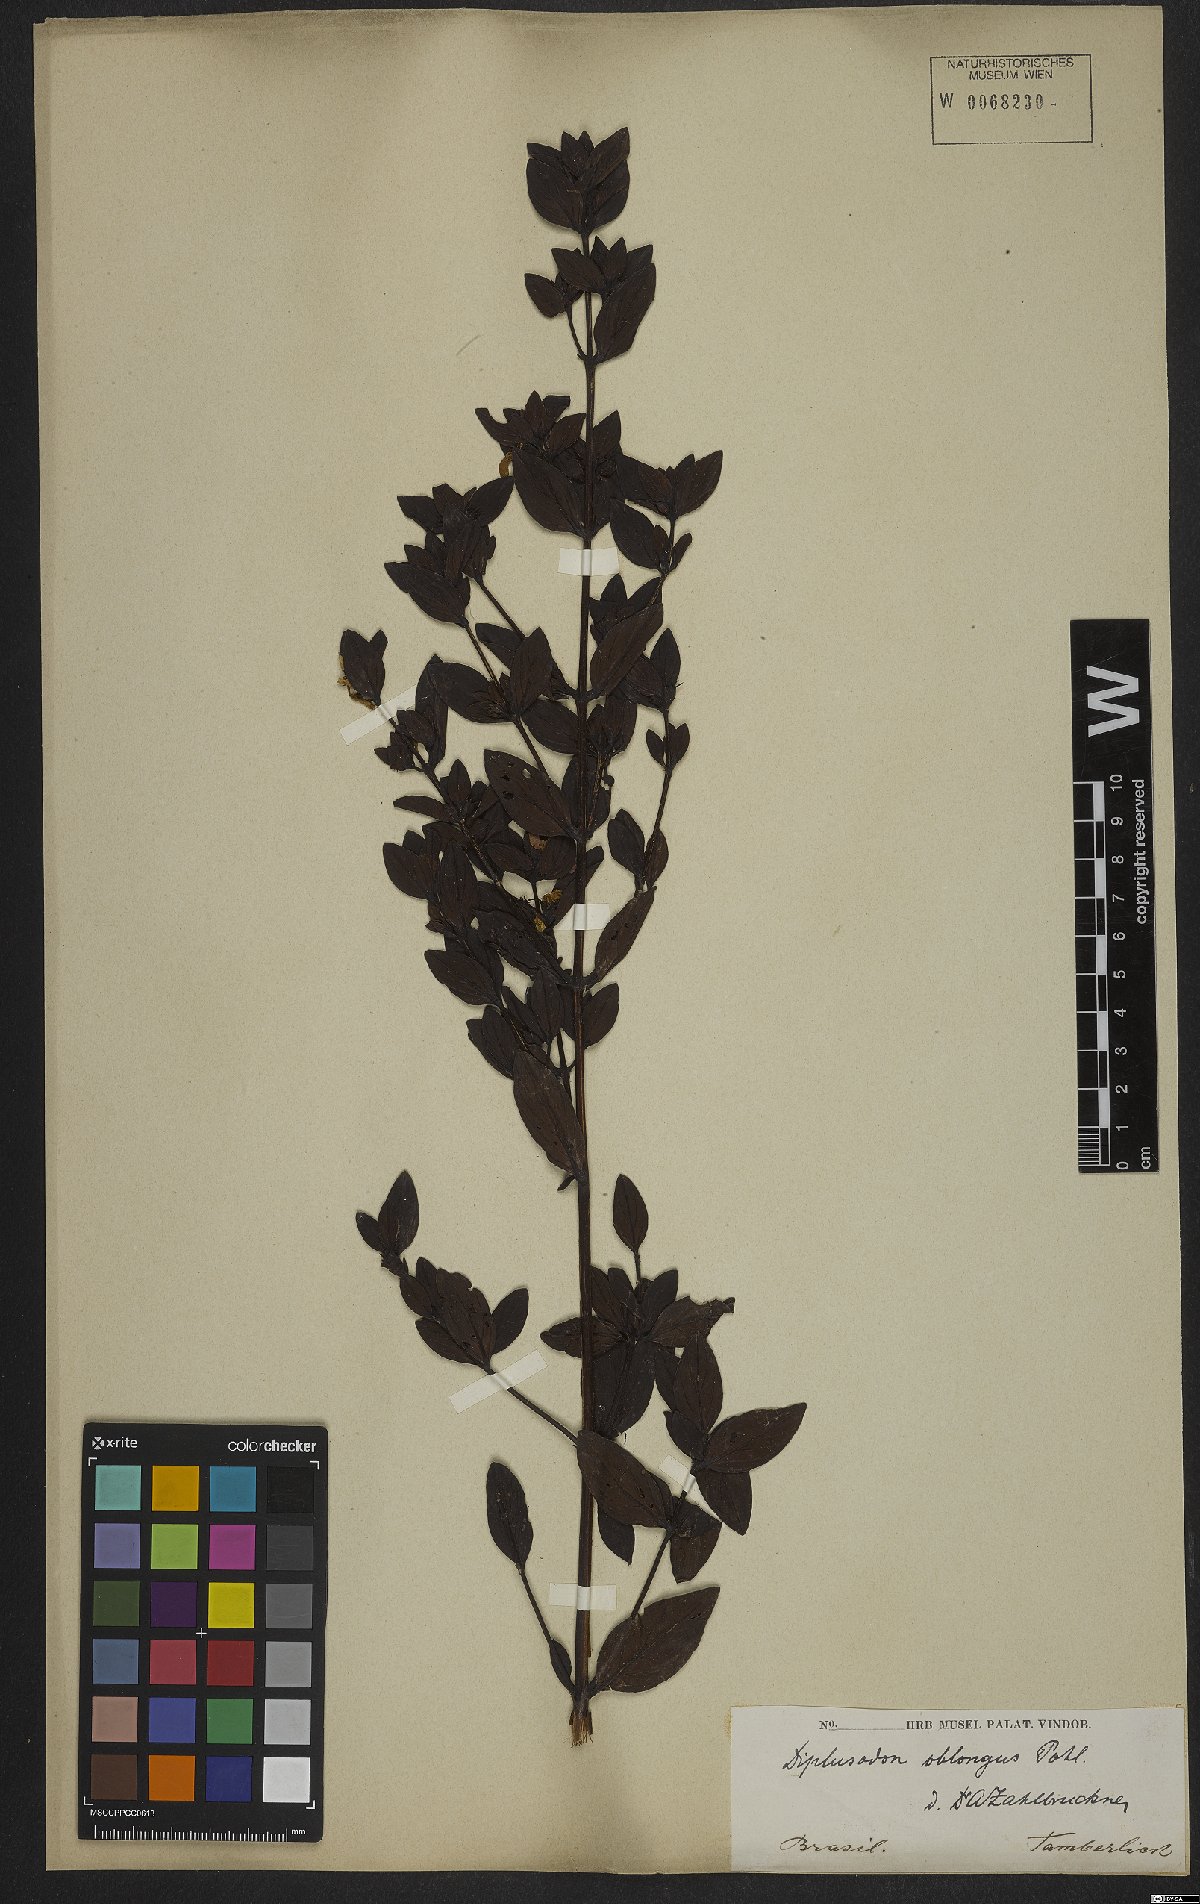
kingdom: Plantae
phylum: Tracheophyta
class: Magnoliopsida
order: Myrtales
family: Lythraceae
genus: Diplusodon
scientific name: Diplusodon oblongus
